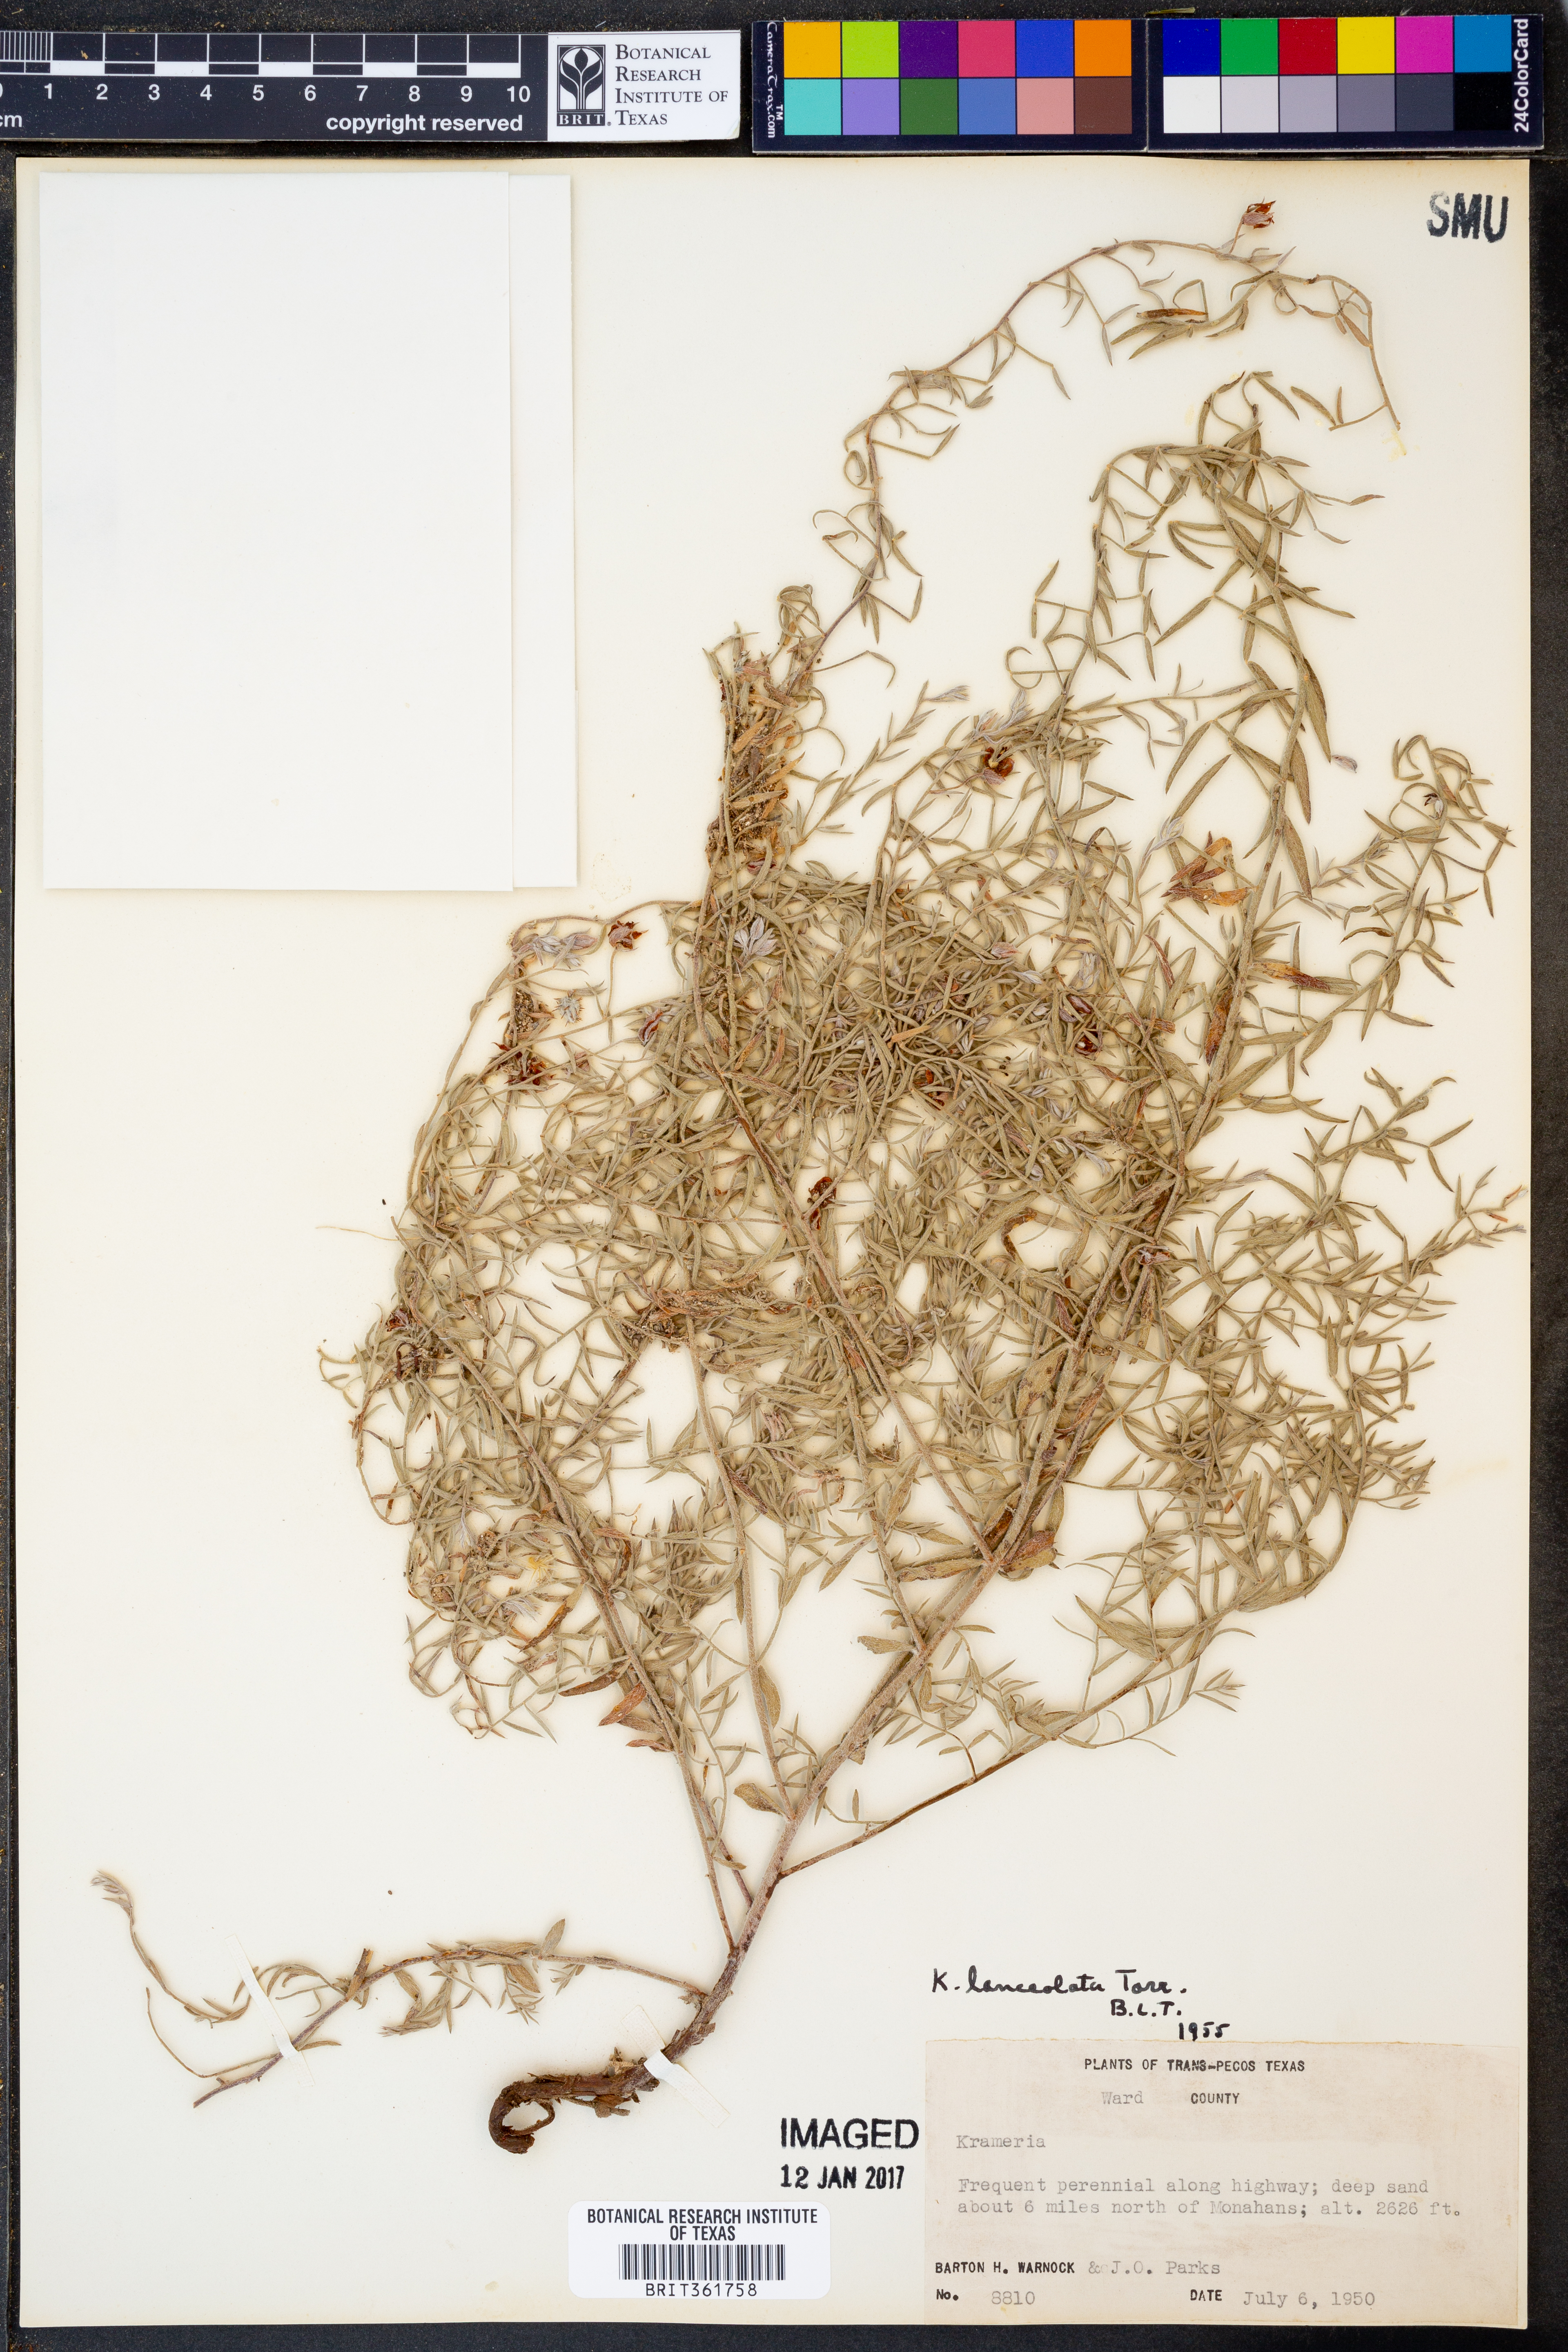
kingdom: Plantae
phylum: Tracheophyta
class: Magnoliopsida
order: Zygophyllales
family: Krameriaceae
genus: Krameria
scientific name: Krameria lanceolata
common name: Ratany
